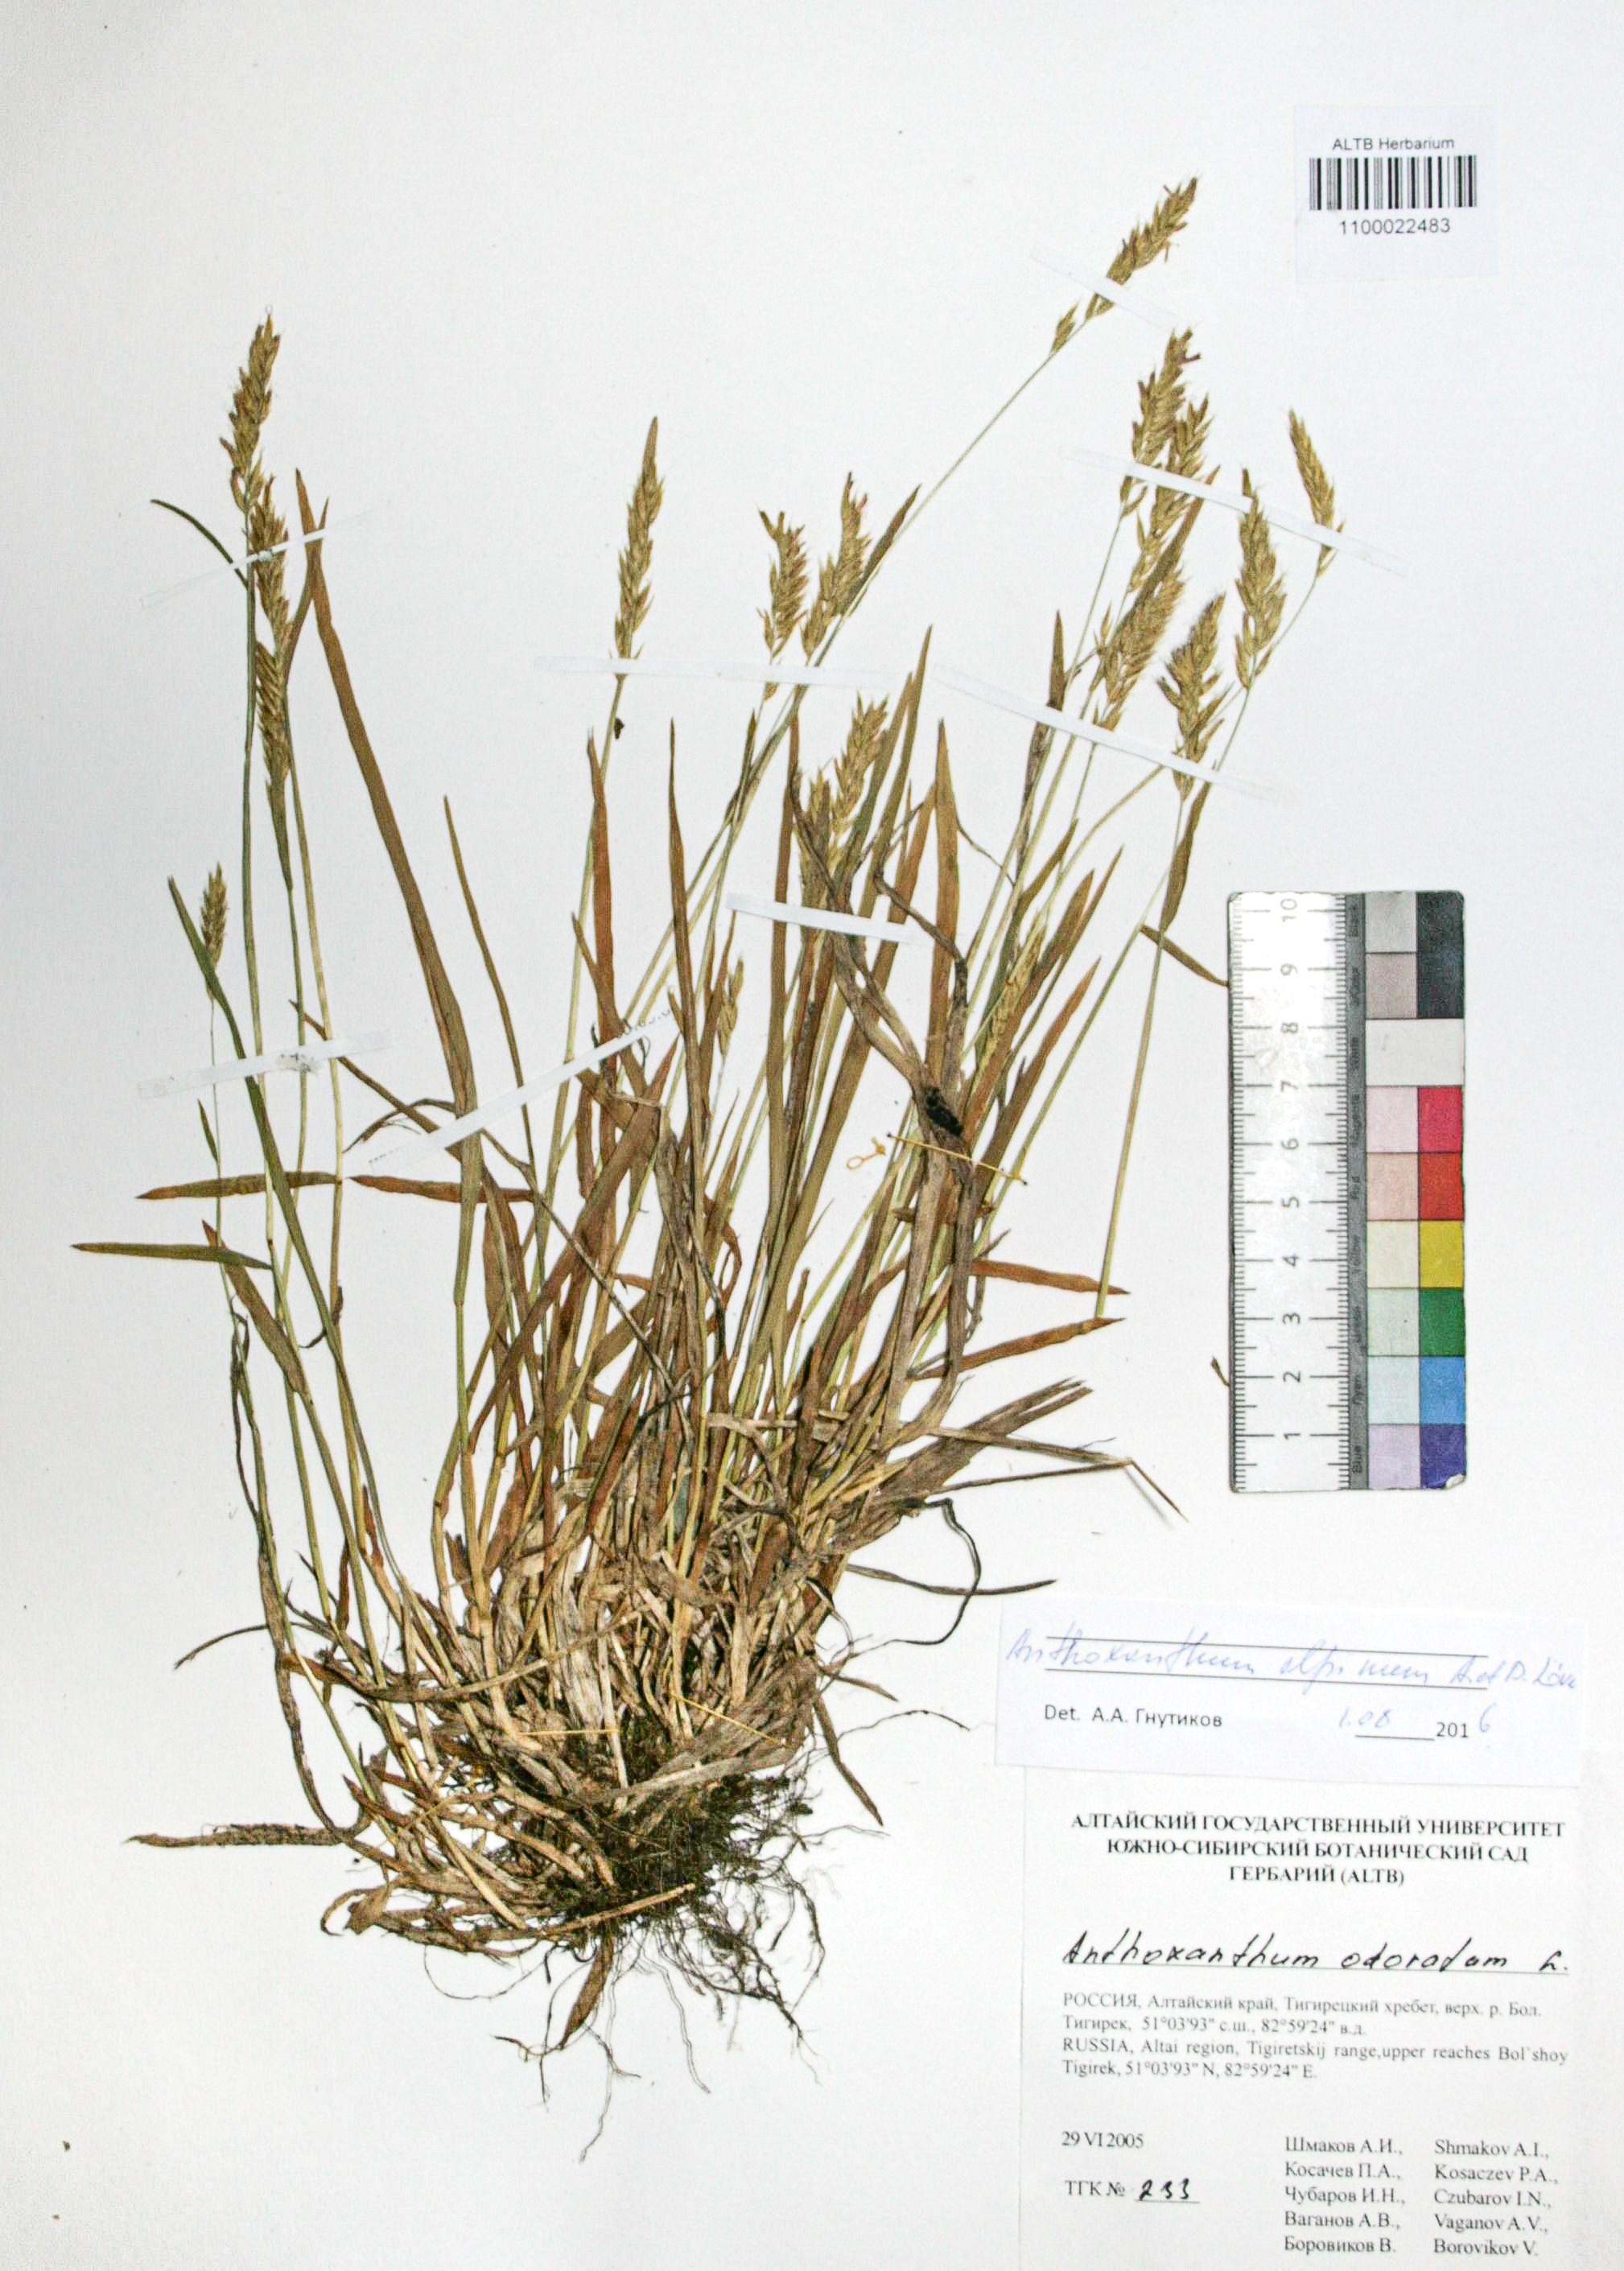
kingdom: Plantae
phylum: Tracheophyta
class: Liliopsida
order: Poales
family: Poaceae
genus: Anthoxanthum
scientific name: Anthoxanthum nipponicum
